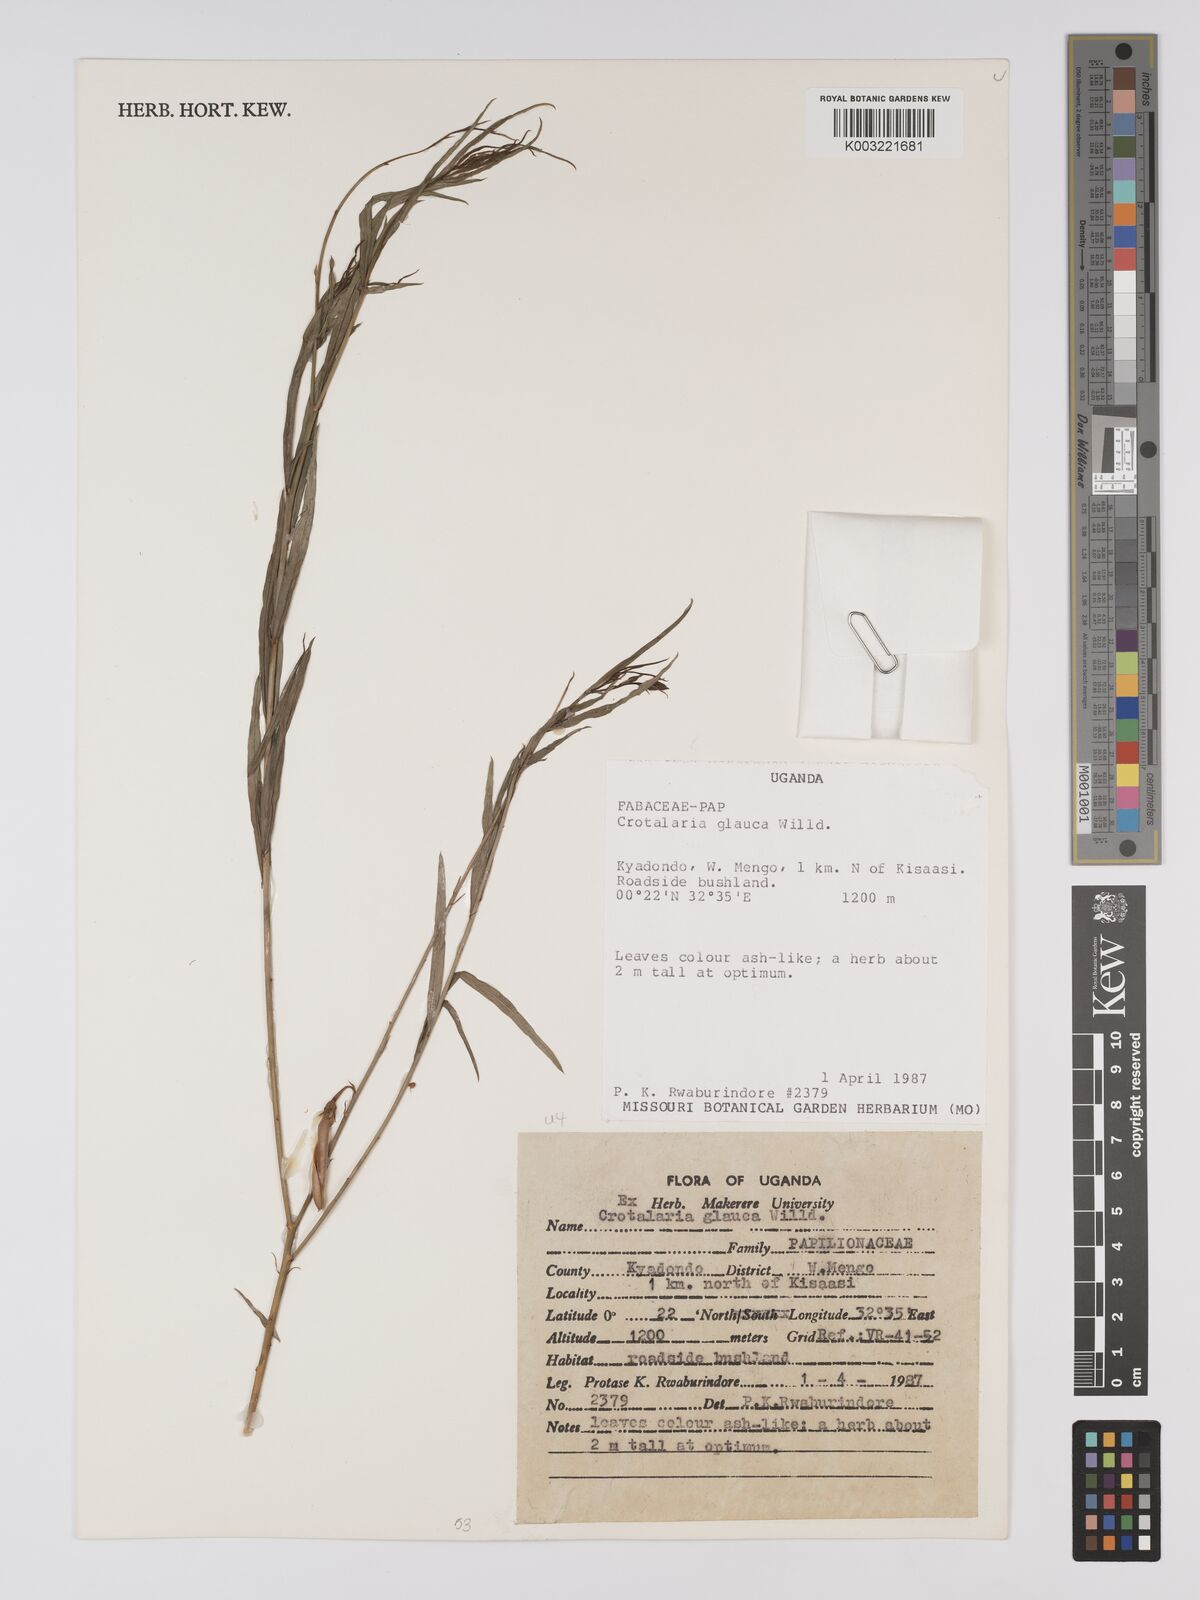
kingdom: Plantae
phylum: Tracheophyta
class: Magnoliopsida
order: Fabales
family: Fabaceae
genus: Crotalaria
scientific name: Crotalaria glauca
